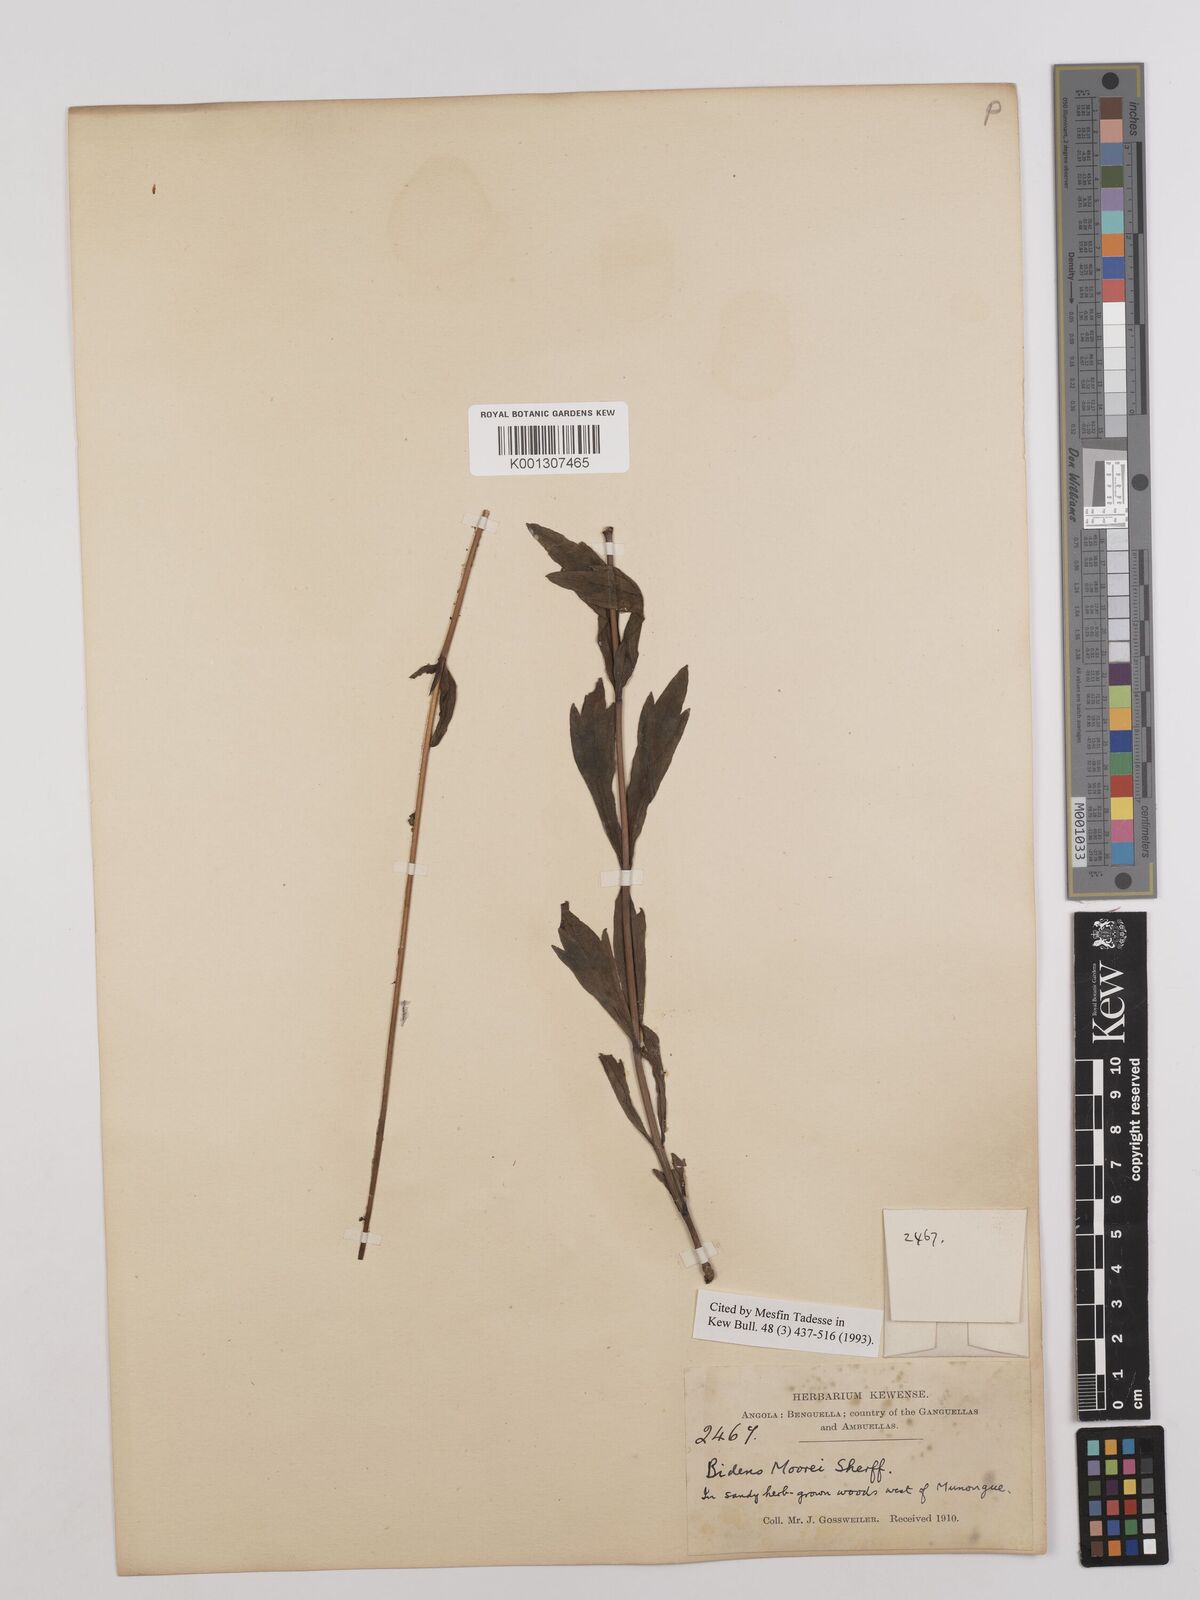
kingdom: Plantae
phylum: Tracheophyta
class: Magnoliopsida
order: Asterales
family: Asteraceae
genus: Bidens
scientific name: Bidens moorei
